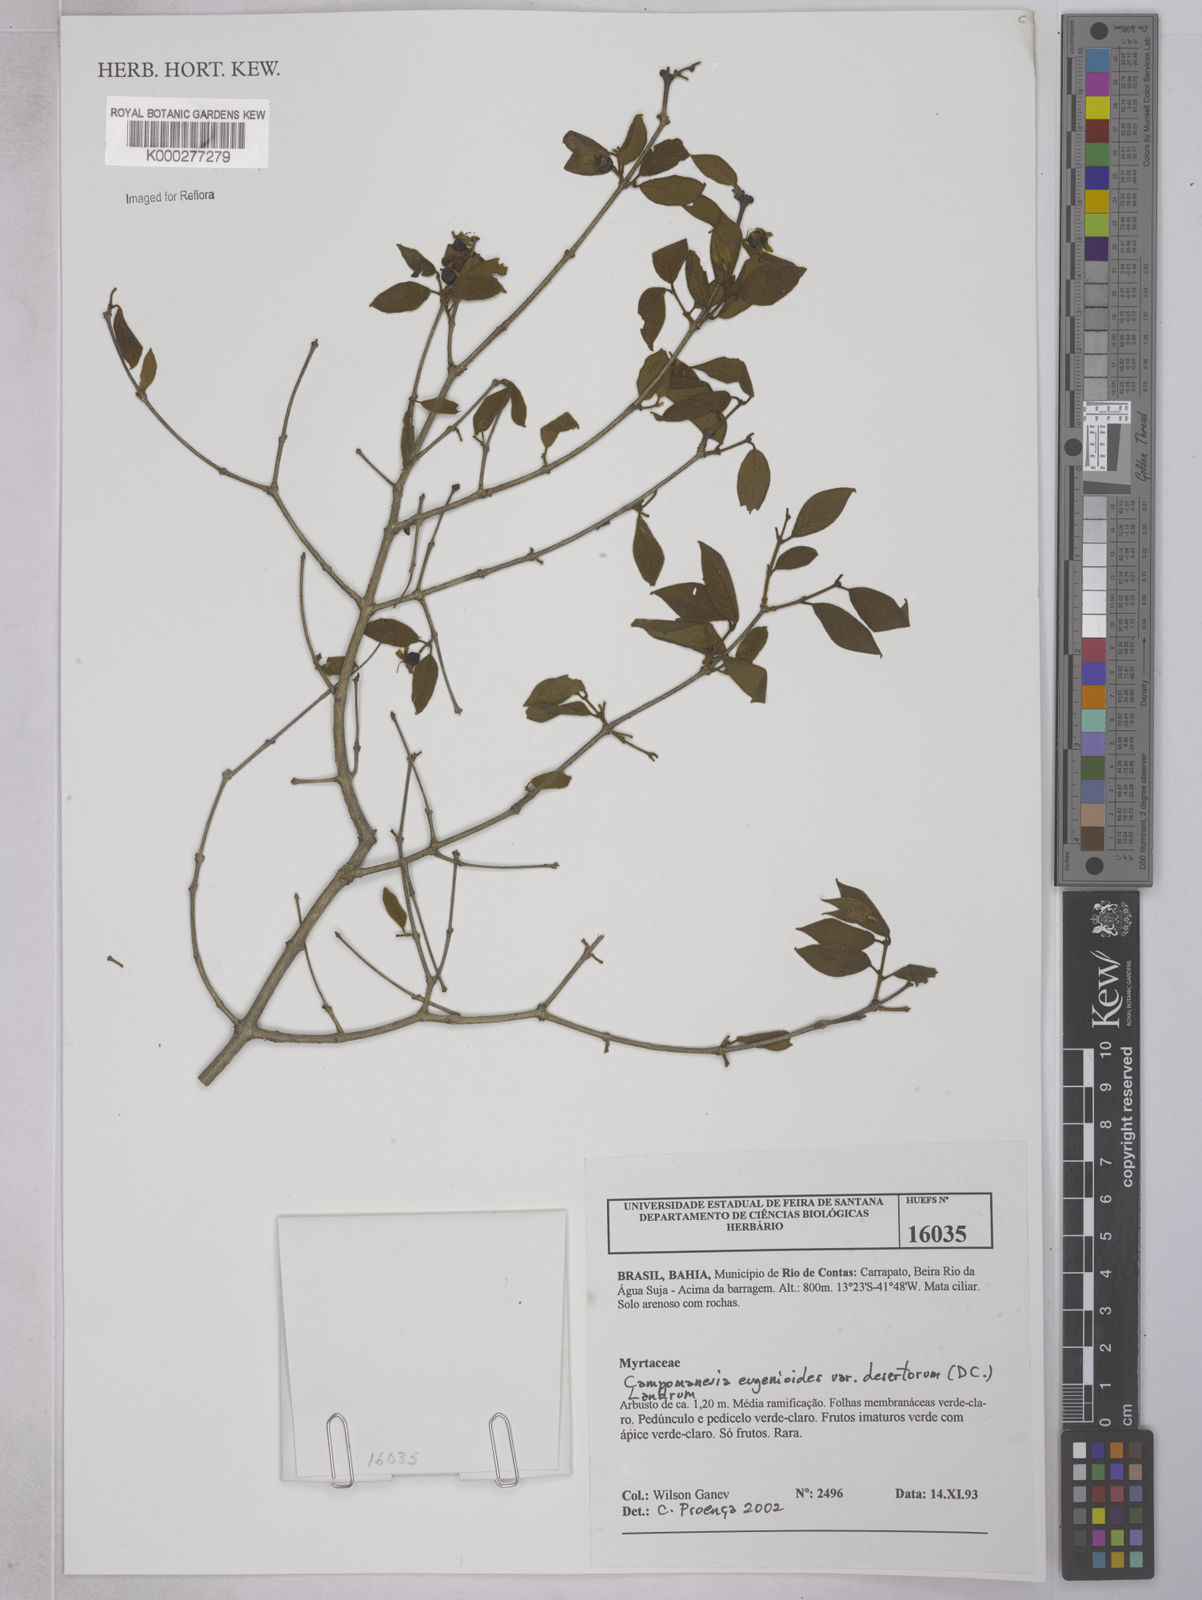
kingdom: Plantae
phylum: Tracheophyta
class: Magnoliopsida
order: Myrtales
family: Myrtaceae
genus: Campomanesia
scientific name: Campomanesia eugenioides
